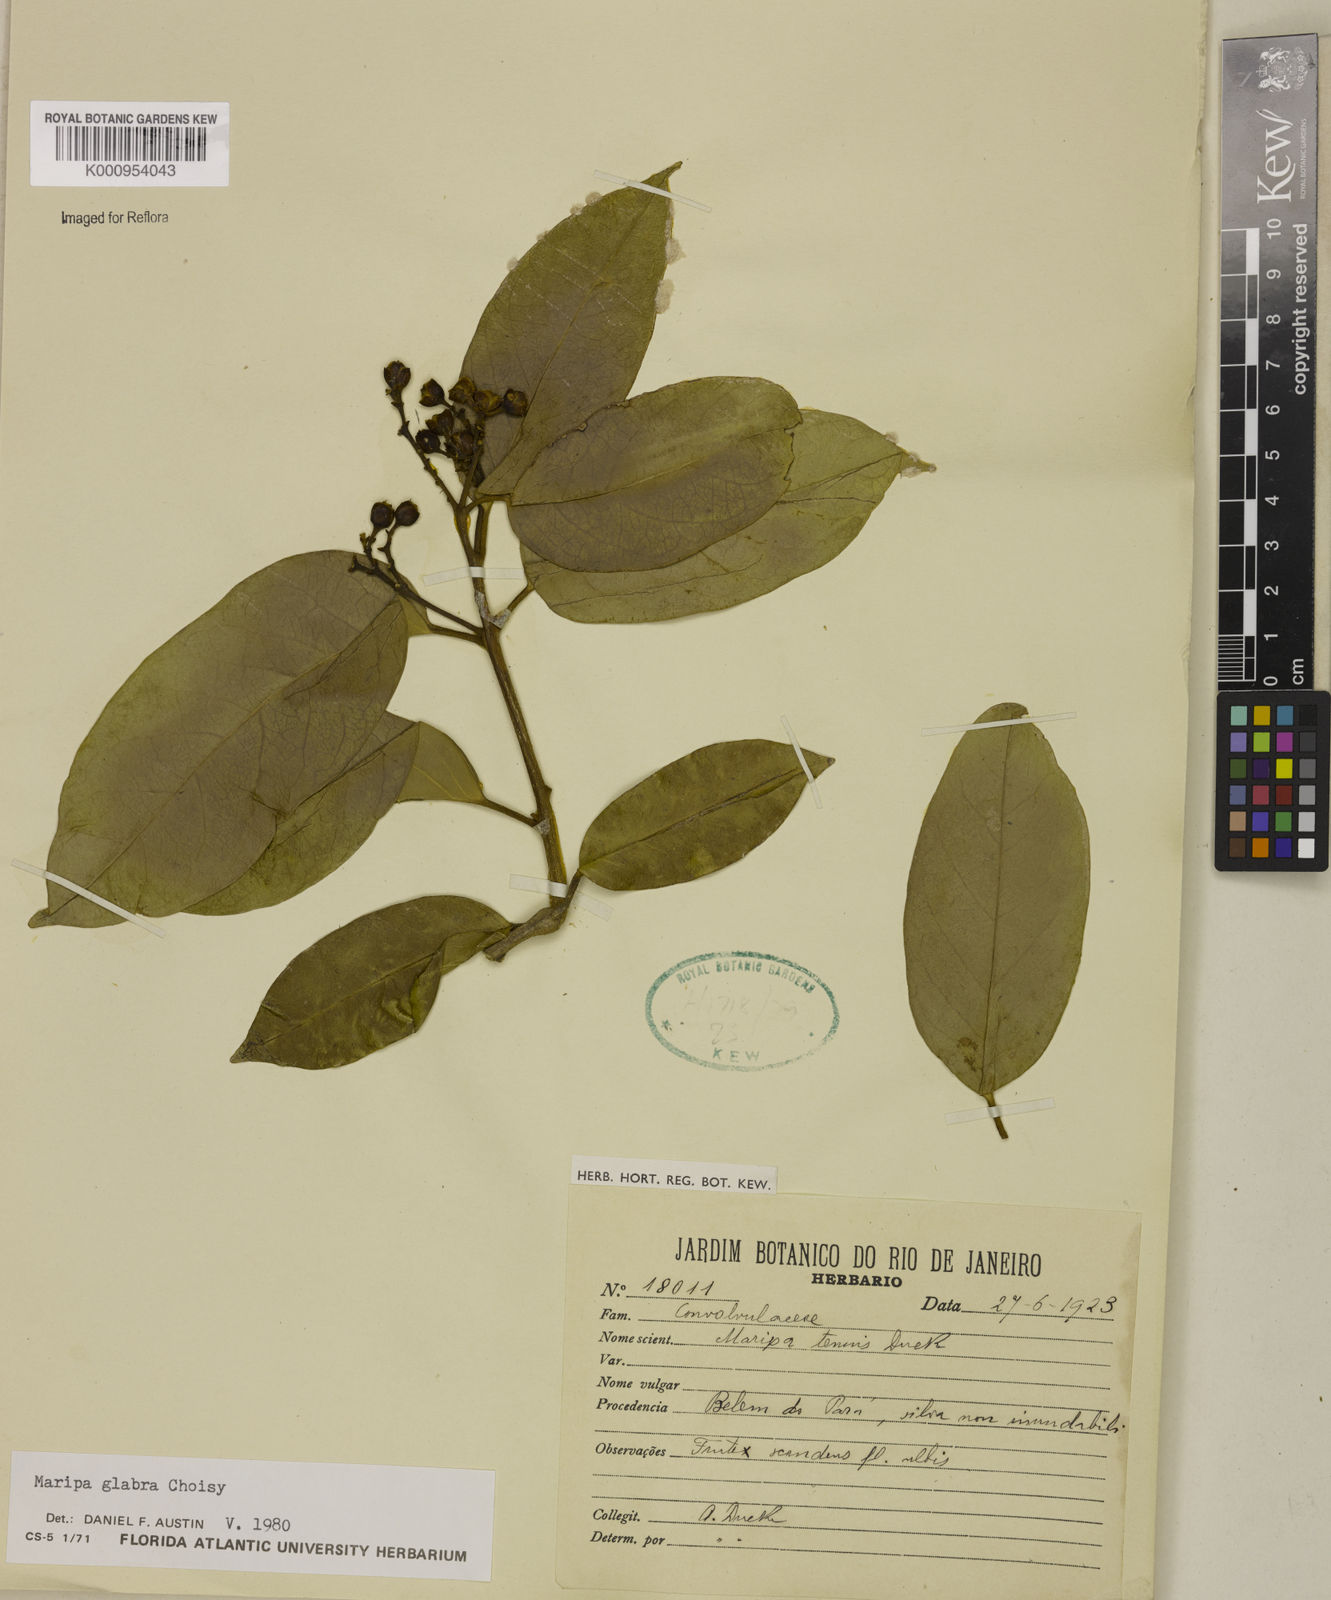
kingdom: Plantae
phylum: Tracheophyta
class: Magnoliopsida
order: Solanales
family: Convolvulaceae
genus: Maripa
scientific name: Maripa glabra
